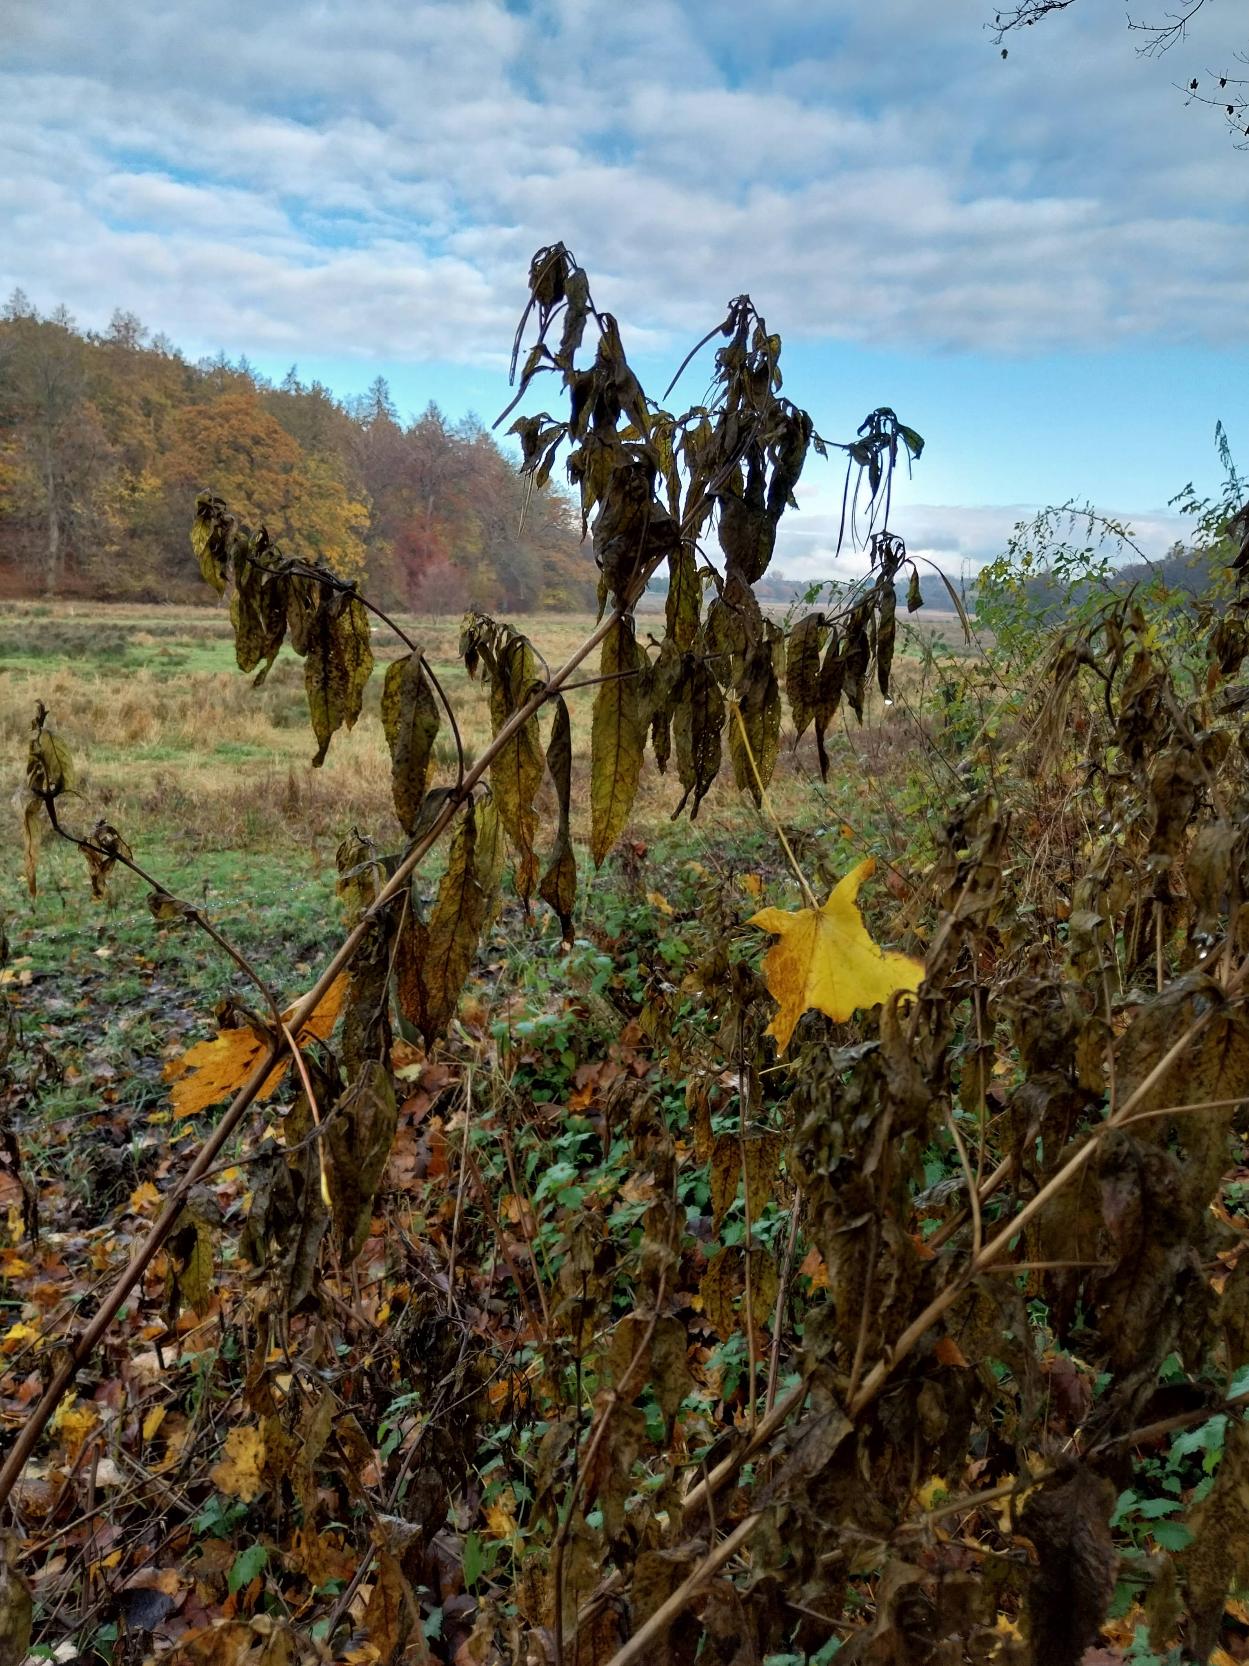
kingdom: Plantae
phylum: Tracheophyta
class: Magnoliopsida
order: Myrtales
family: Onagraceae
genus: Epilobium
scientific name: Epilobium hirsutum
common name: Lådden dueurt
